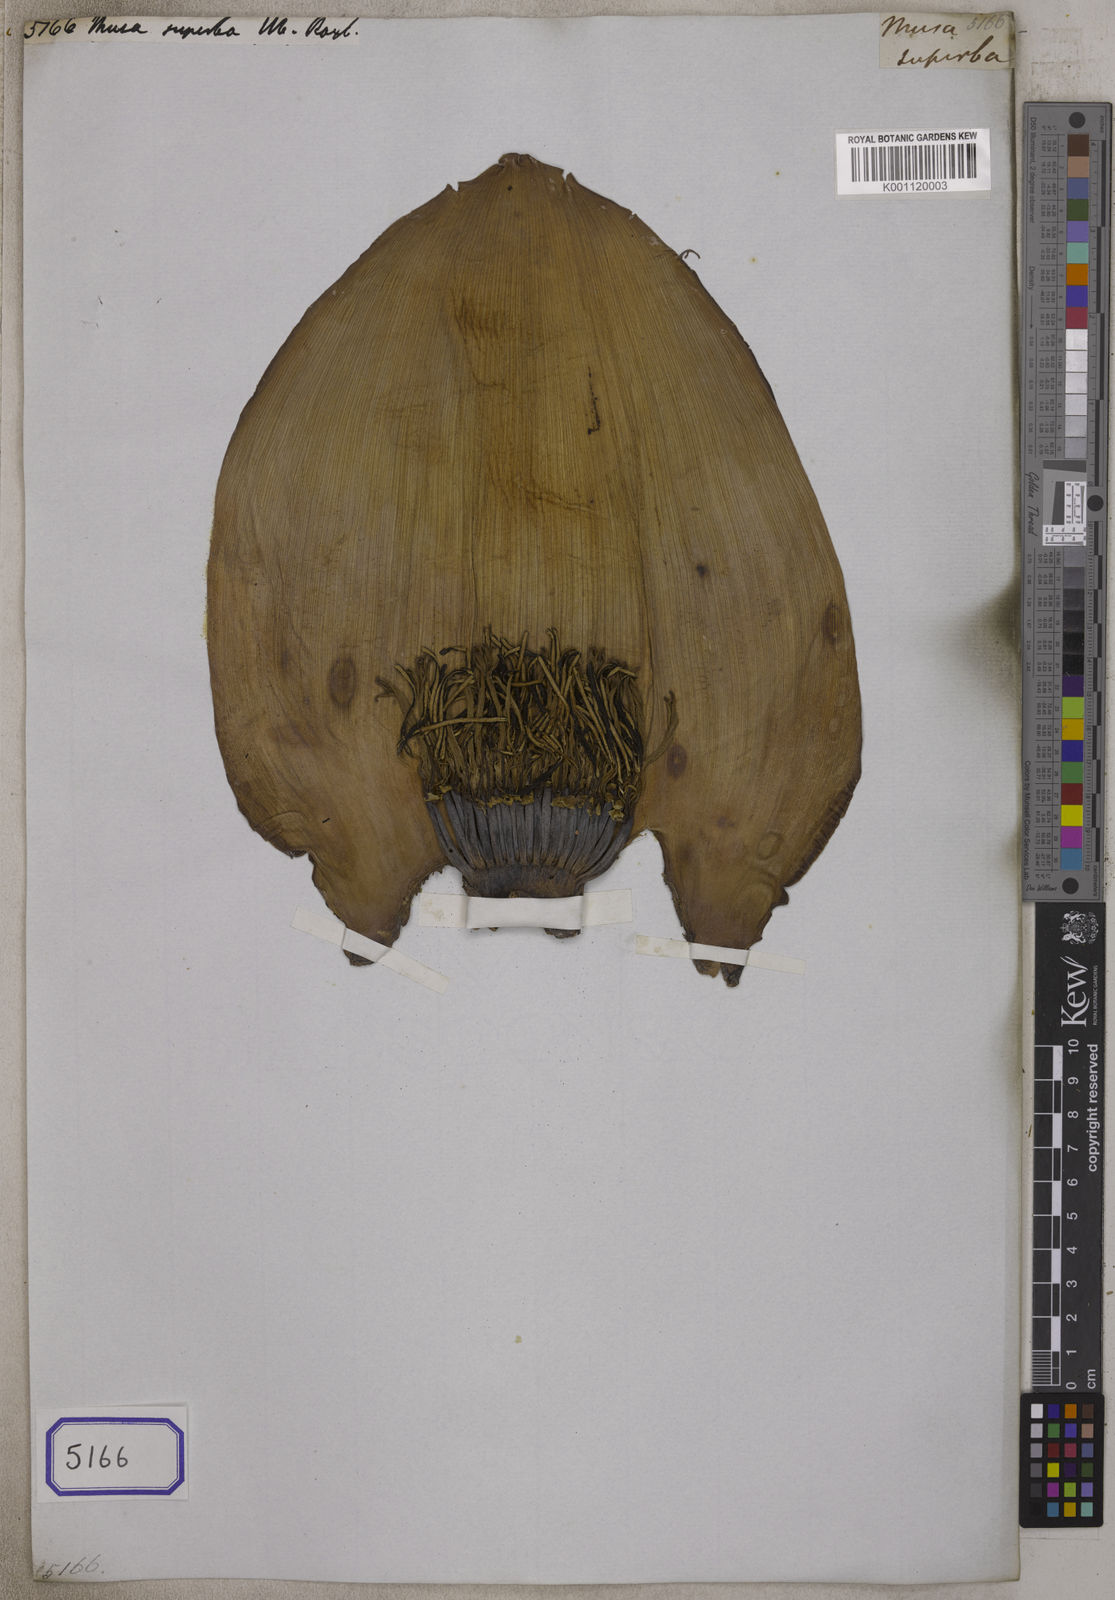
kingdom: Plantae
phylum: Tracheophyta
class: Liliopsida
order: Zingiberales
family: Musaceae
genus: Ensete
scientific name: Ensete superbum
